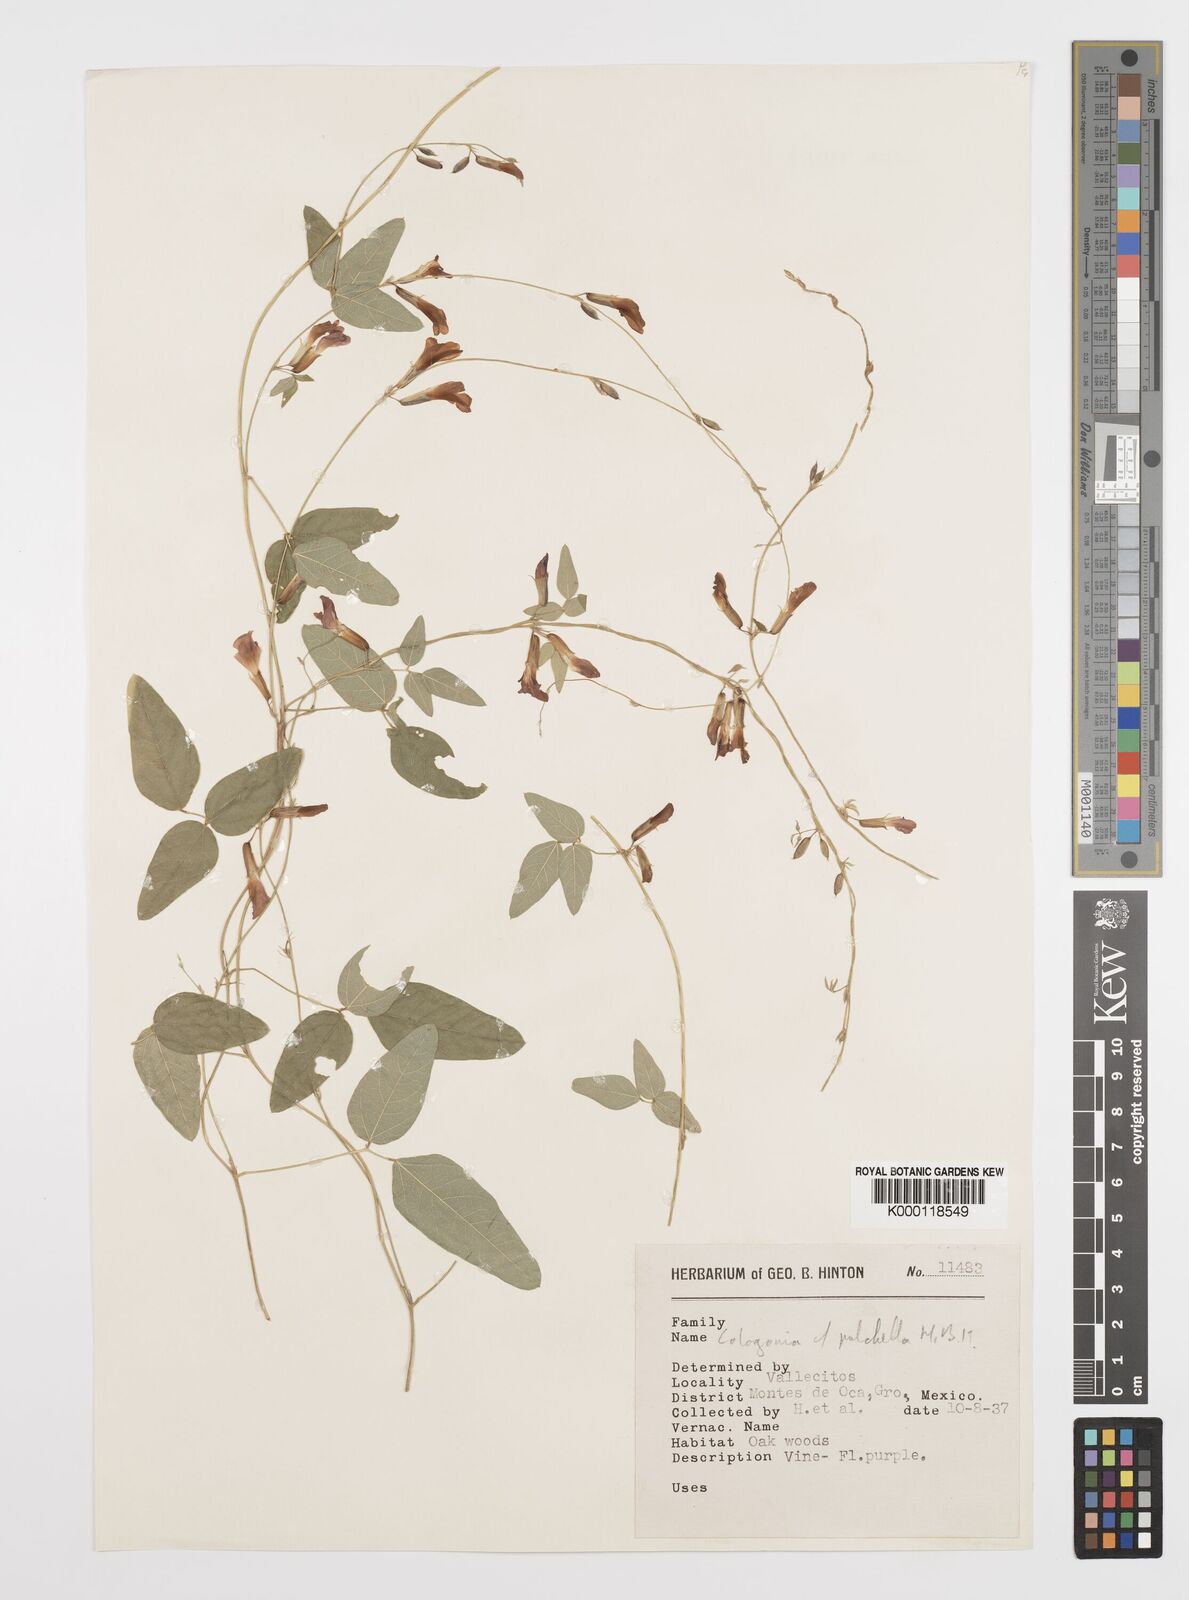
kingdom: Plantae
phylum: Tracheophyta
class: Magnoliopsida
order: Fabales
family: Fabaceae
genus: Cologania
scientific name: Cologania broussonetii
